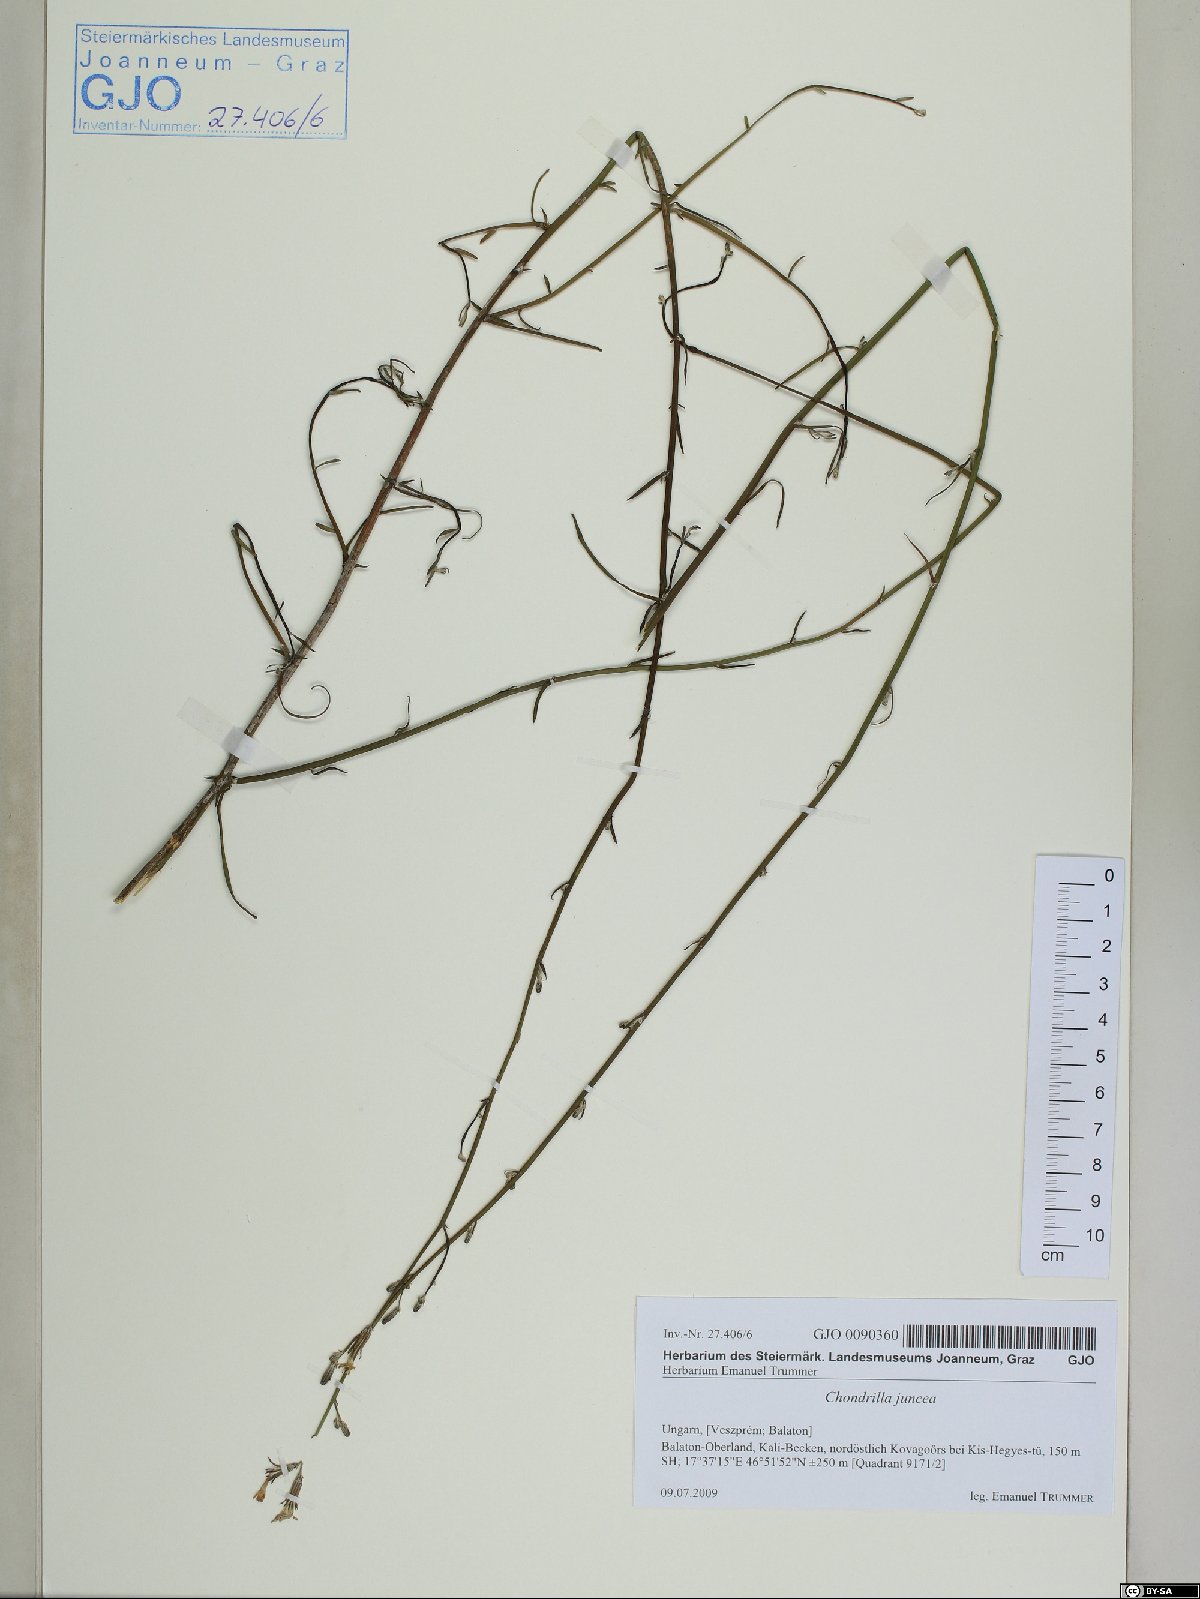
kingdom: Plantae
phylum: Tracheophyta
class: Magnoliopsida
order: Asterales
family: Asteraceae
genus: Chondrilla
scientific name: Chondrilla juncea
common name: Skeleton weed
